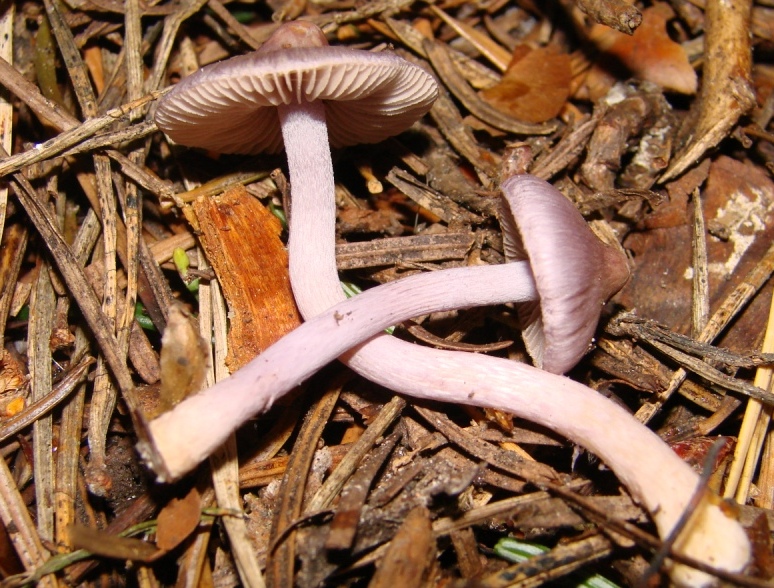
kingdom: Fungi
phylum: Basidiomycota
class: Agaricomycetes
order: Agaricales
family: Inocybaceae
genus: Inocybe
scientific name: Inocybe geophylla
